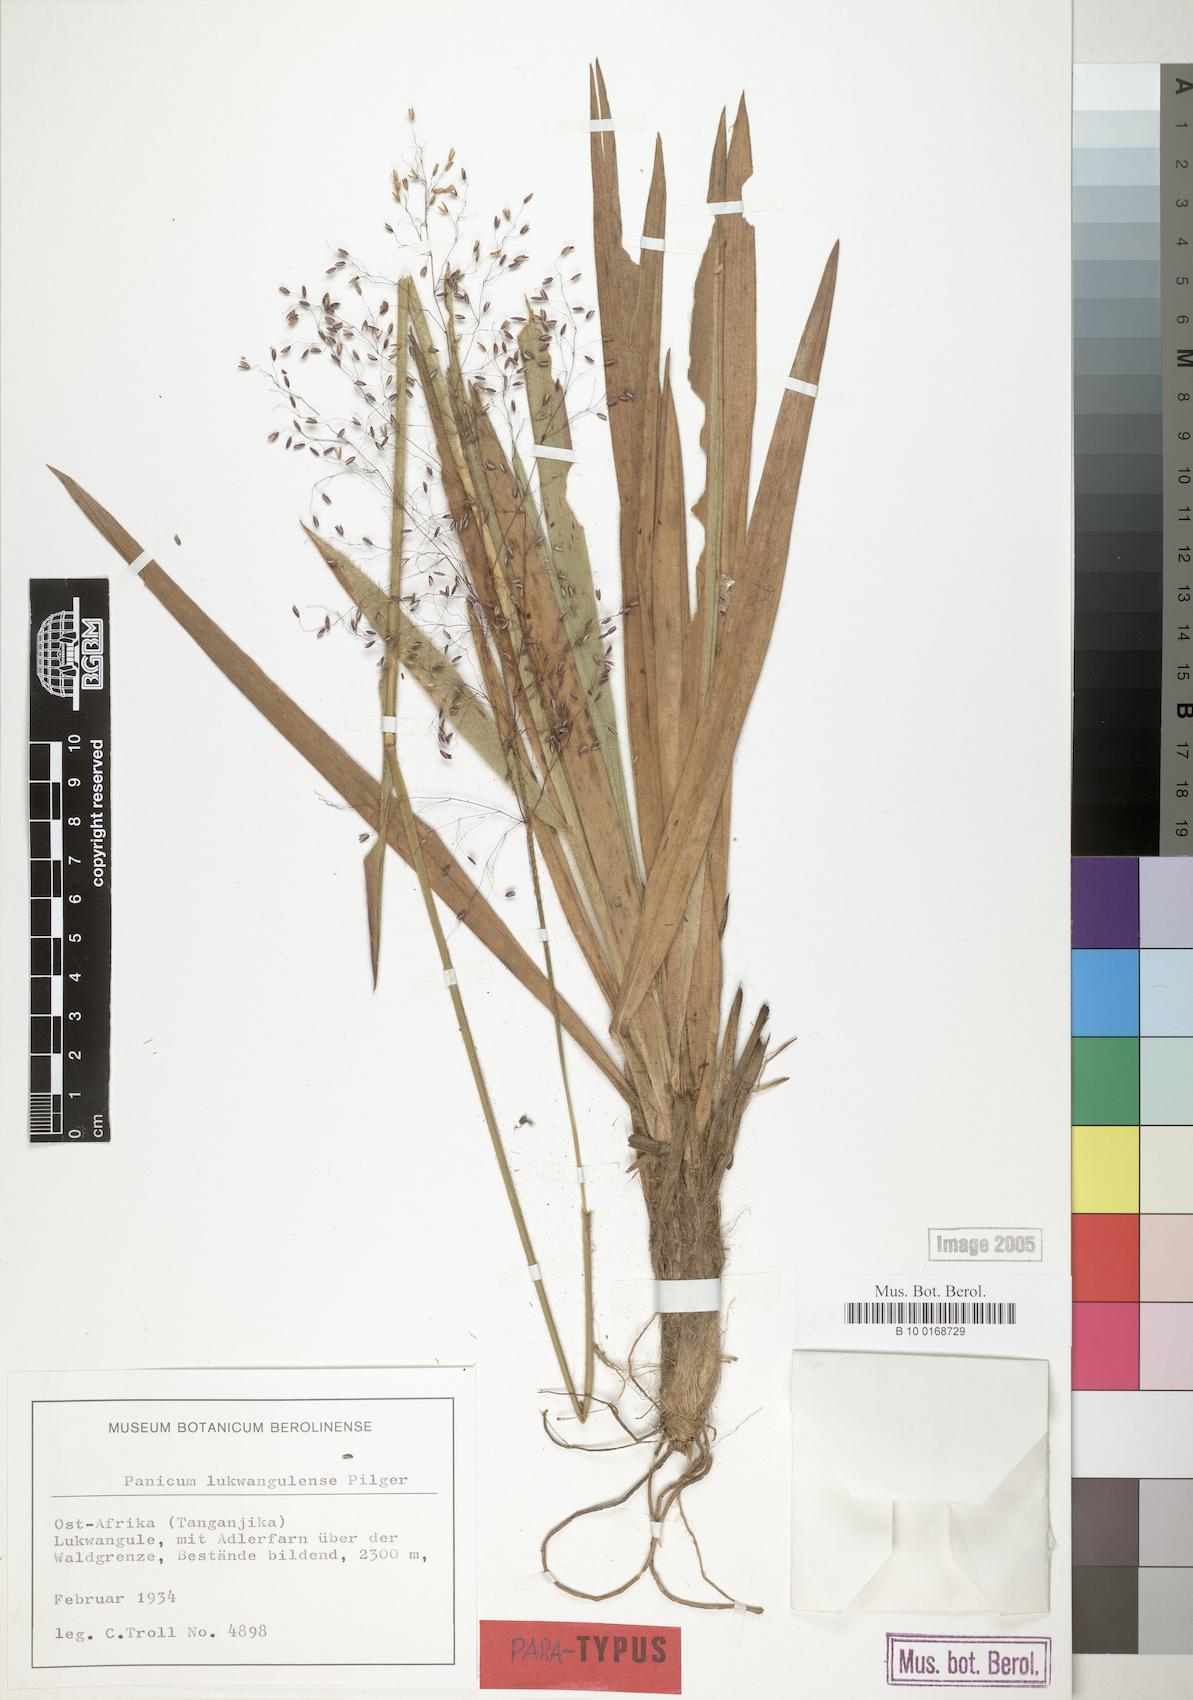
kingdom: Plantae
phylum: Tracheophyta
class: Liliopsida
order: Poales
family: Poaceae
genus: Adenochloa
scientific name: Adenochloa lukwangulense
